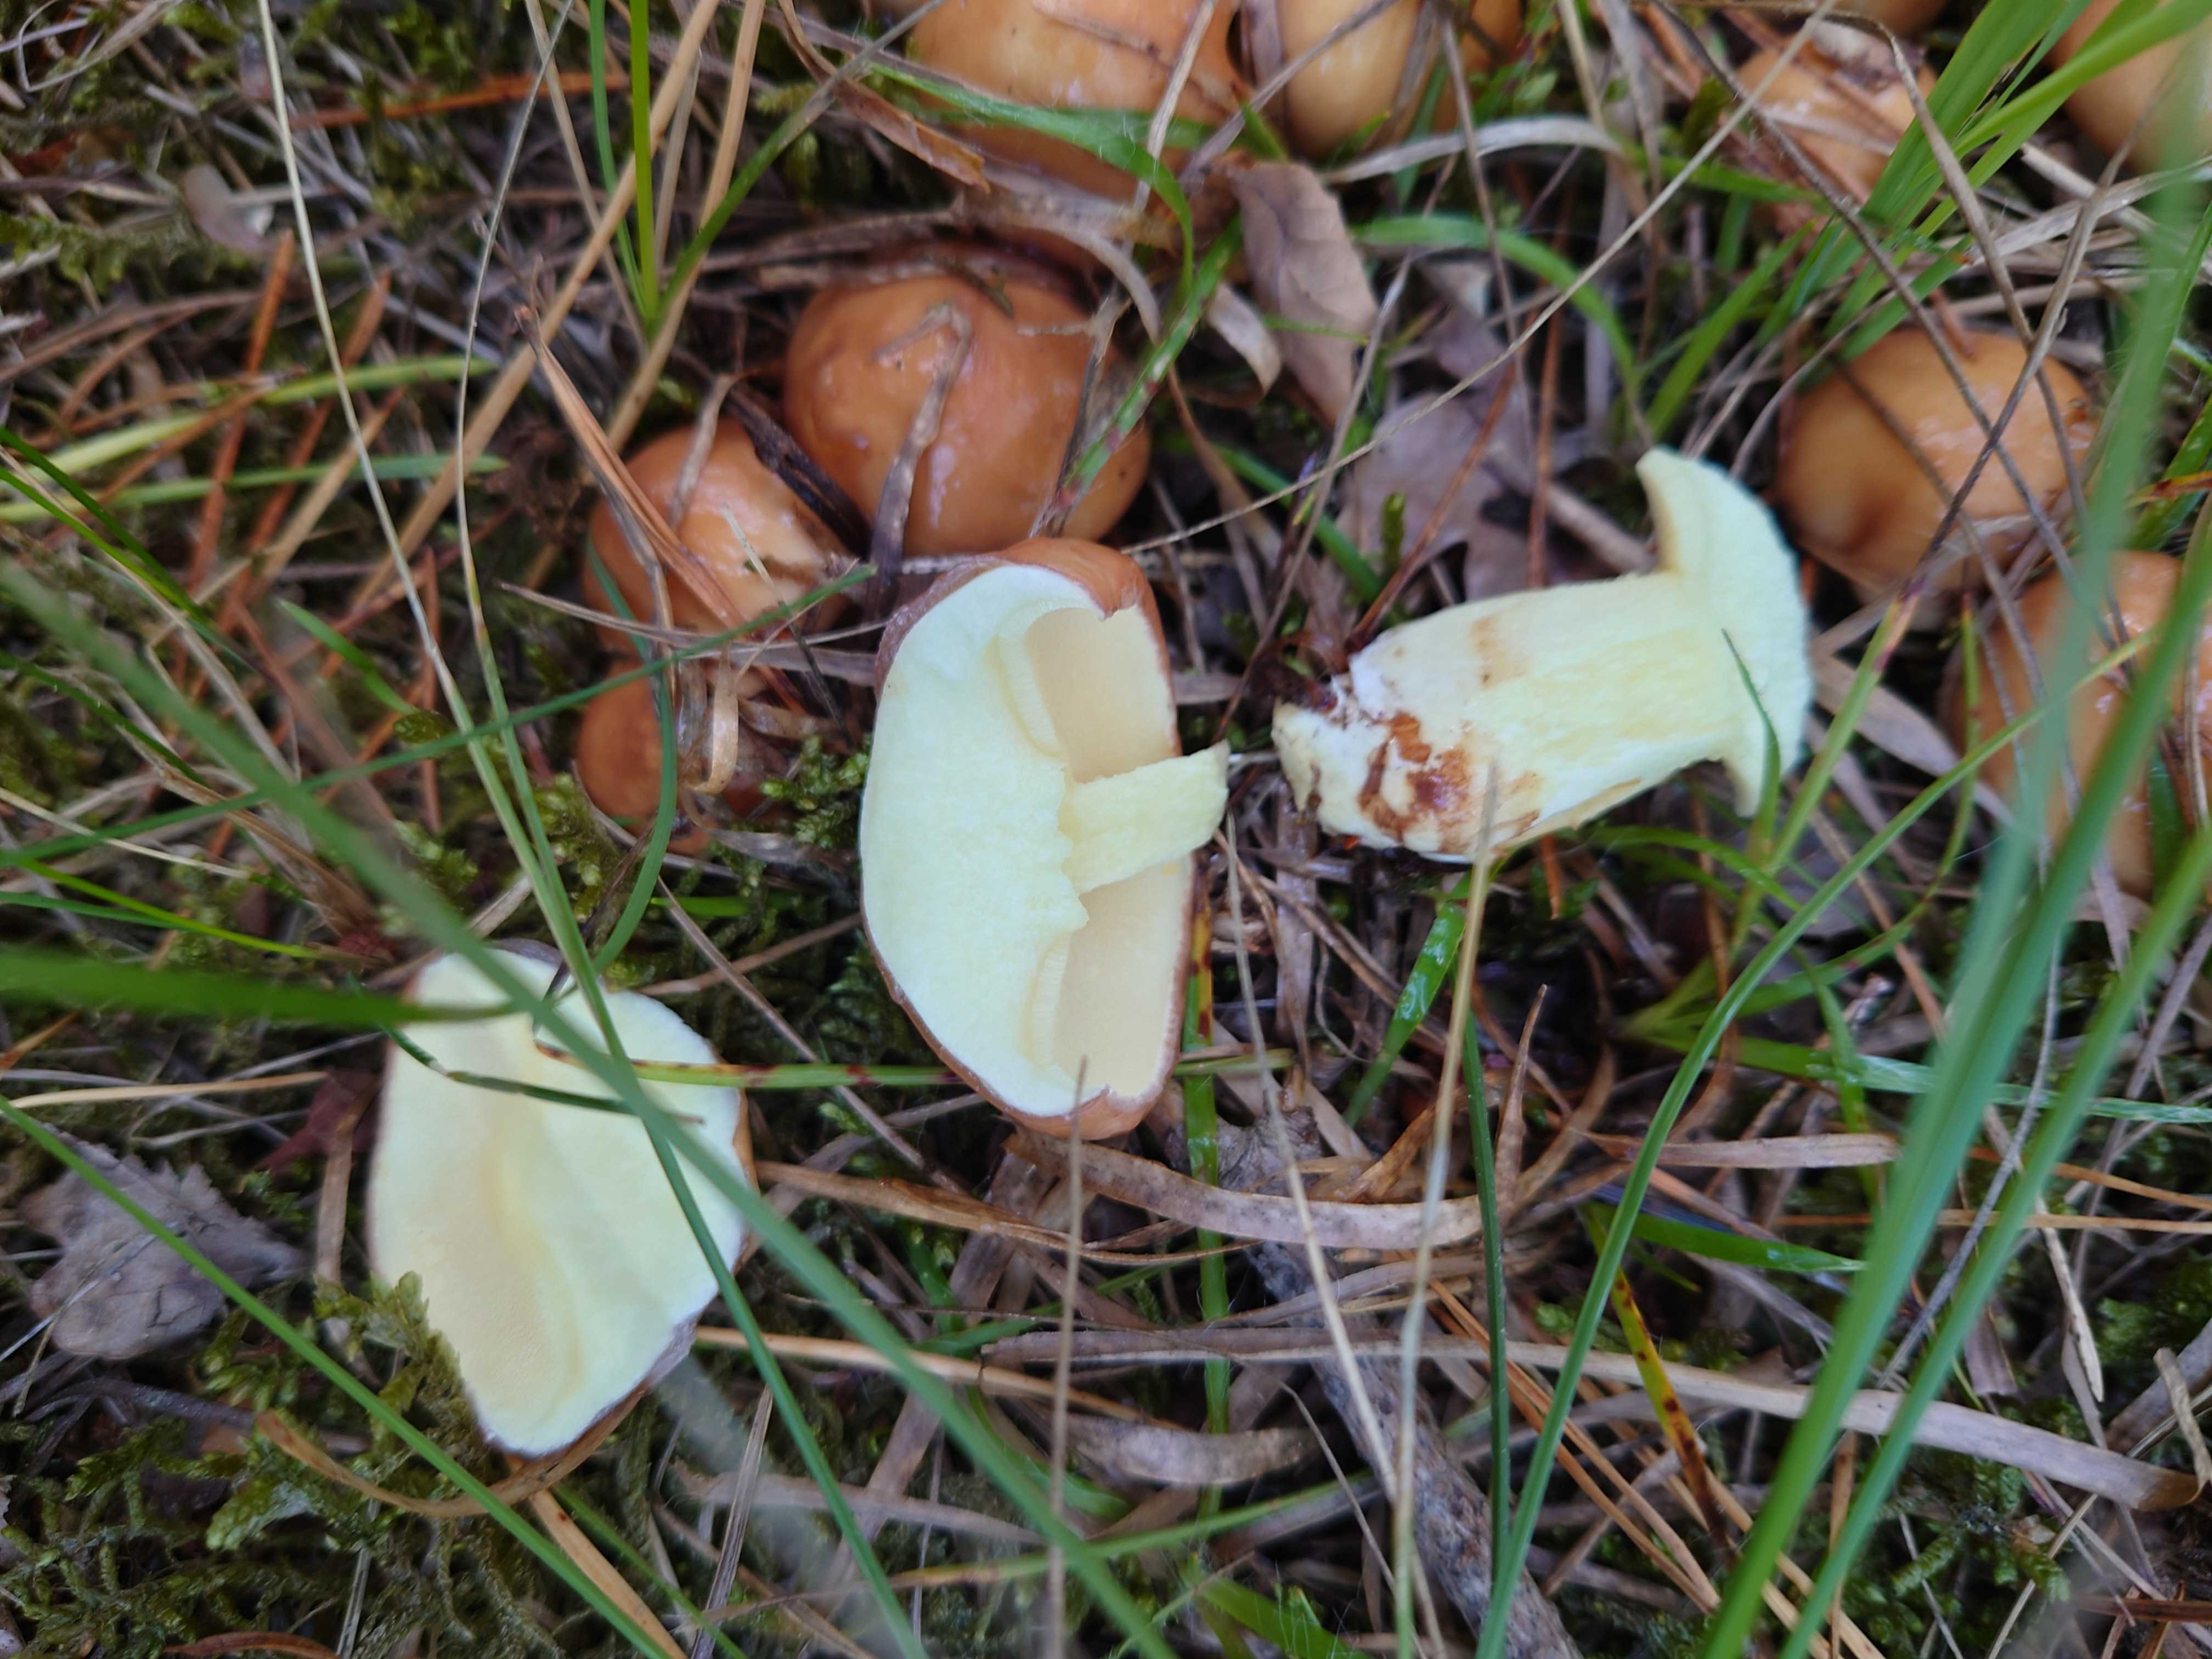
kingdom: Fungi
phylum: Basidiomycota
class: Agaricomycetes
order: Boletales
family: Suillaceae
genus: Suillus
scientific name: Suillus granulatus
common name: kornet slimrørhat
